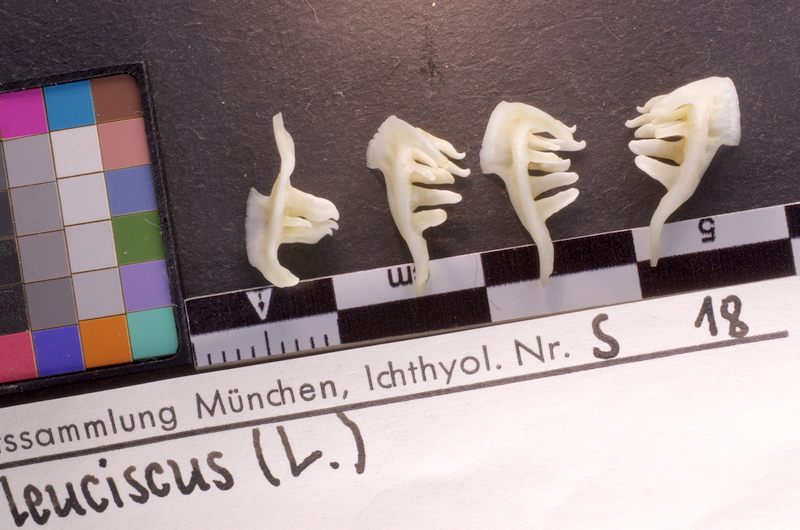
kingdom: Animalia
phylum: Chordata
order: Cypriniformes
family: Cyprinidae
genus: Leuciscus
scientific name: Leuciscus leuciscus
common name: Dace
